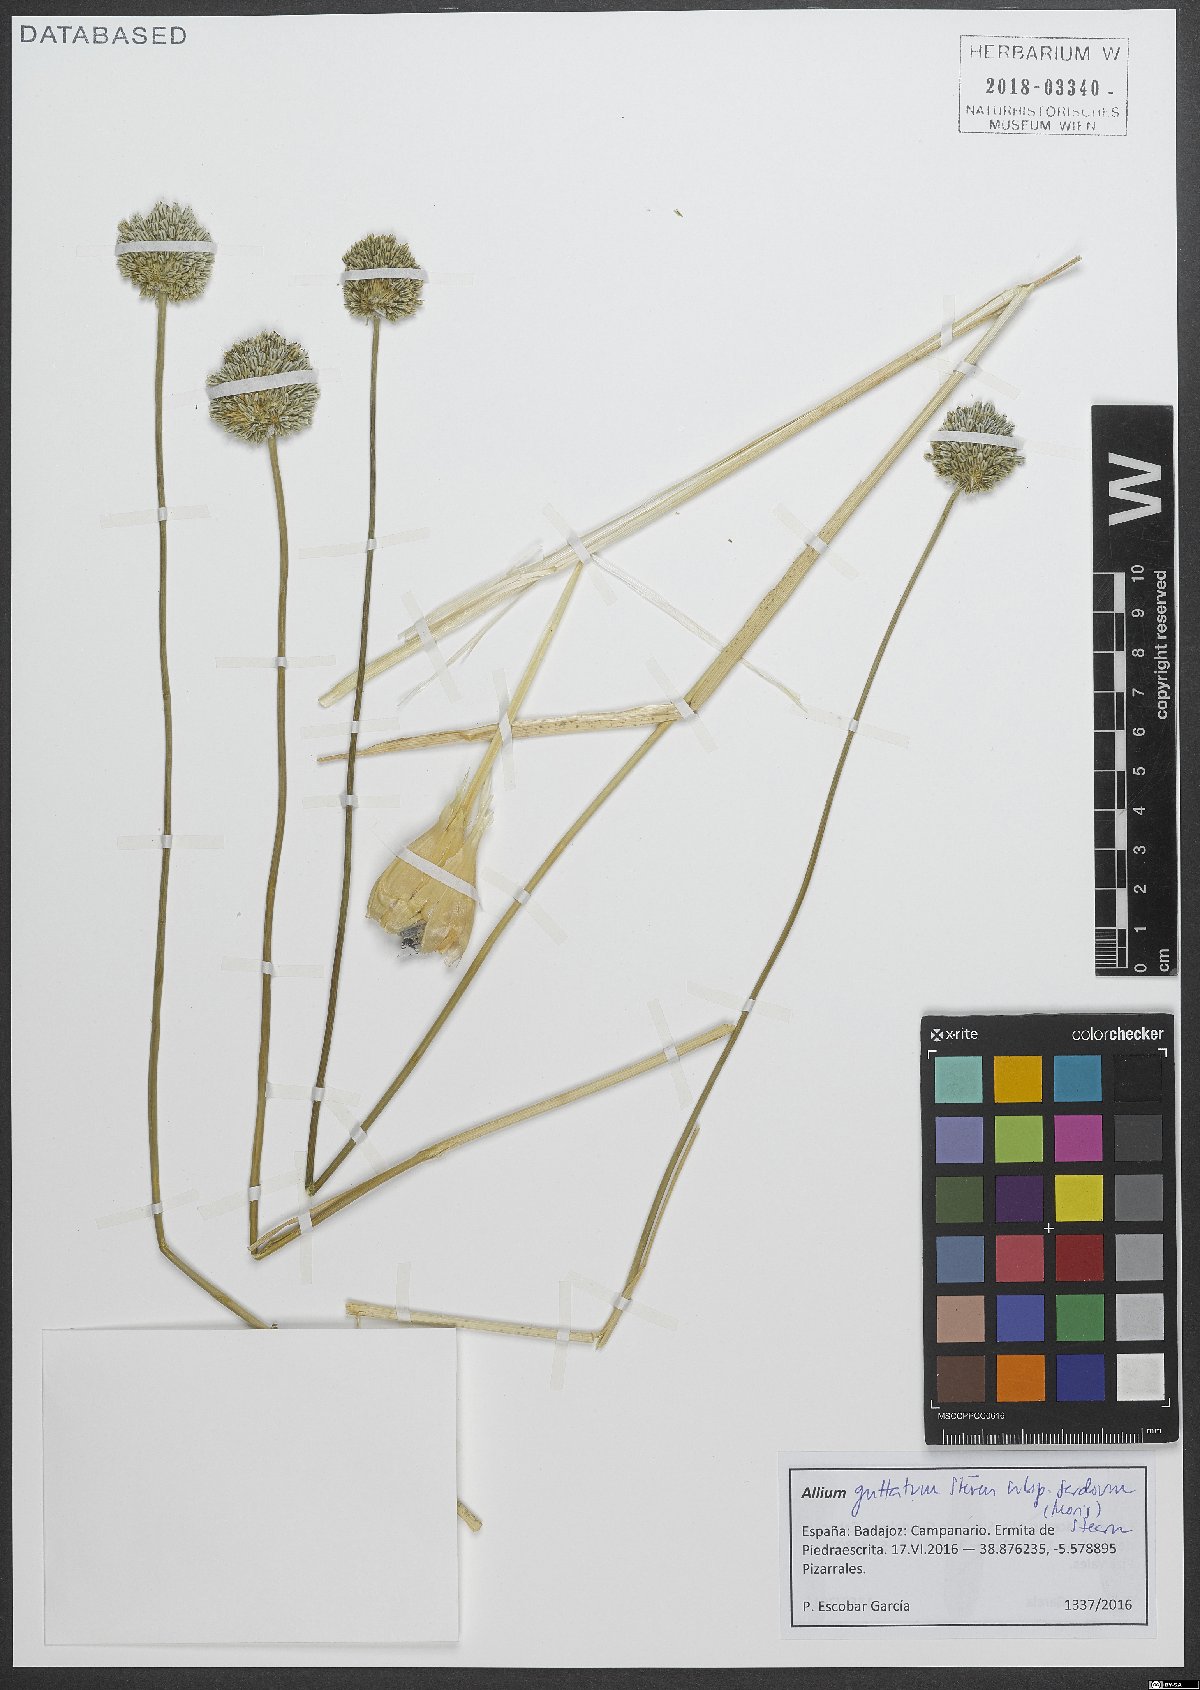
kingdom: Plantae
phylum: Tracheophyta
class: Liliopsida
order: Asparagales
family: Amaryllidaceae
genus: Allium
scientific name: Allium sardoum
